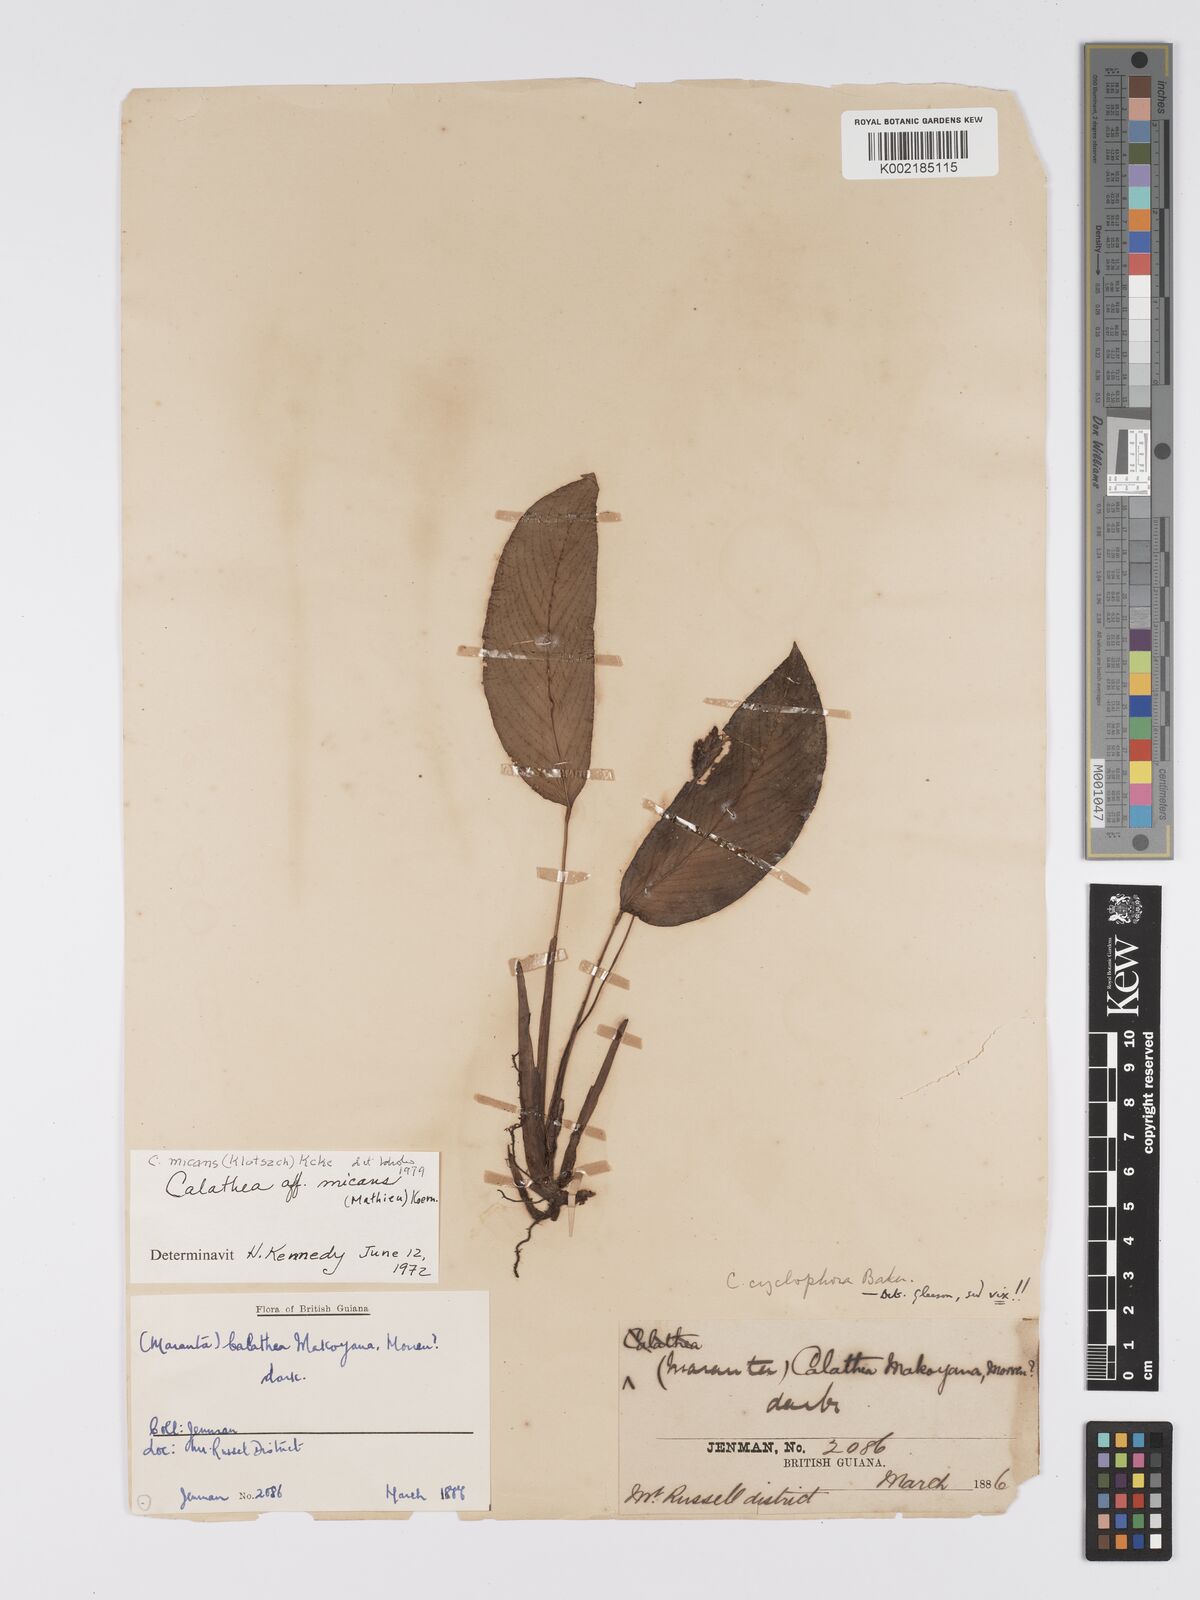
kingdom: Plantae
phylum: Tracheophyta
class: Liliopsida
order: Zingiberales
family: Marantaceae
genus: Goeppertia
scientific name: Goeppertia micans
